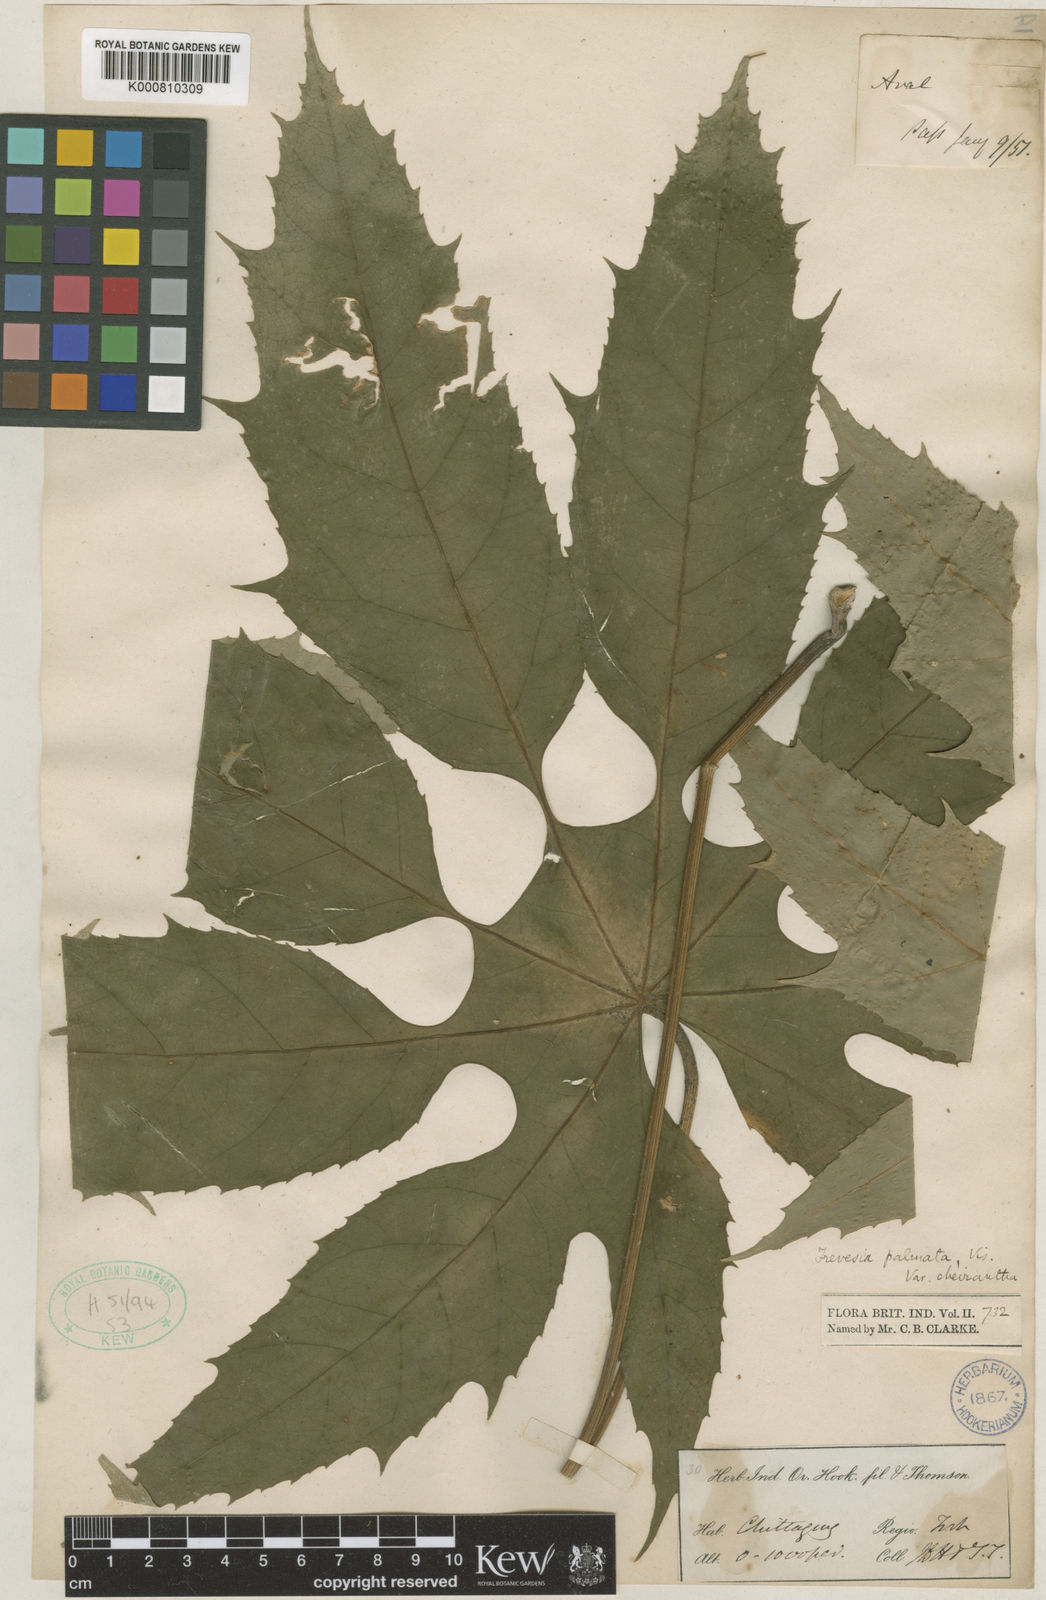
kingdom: Plantae
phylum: Tracheophyta
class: Magnoliopsida
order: Apiales
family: Araliaceae
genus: Trevesia
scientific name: Trevesia palmata
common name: Snowflakeplant
